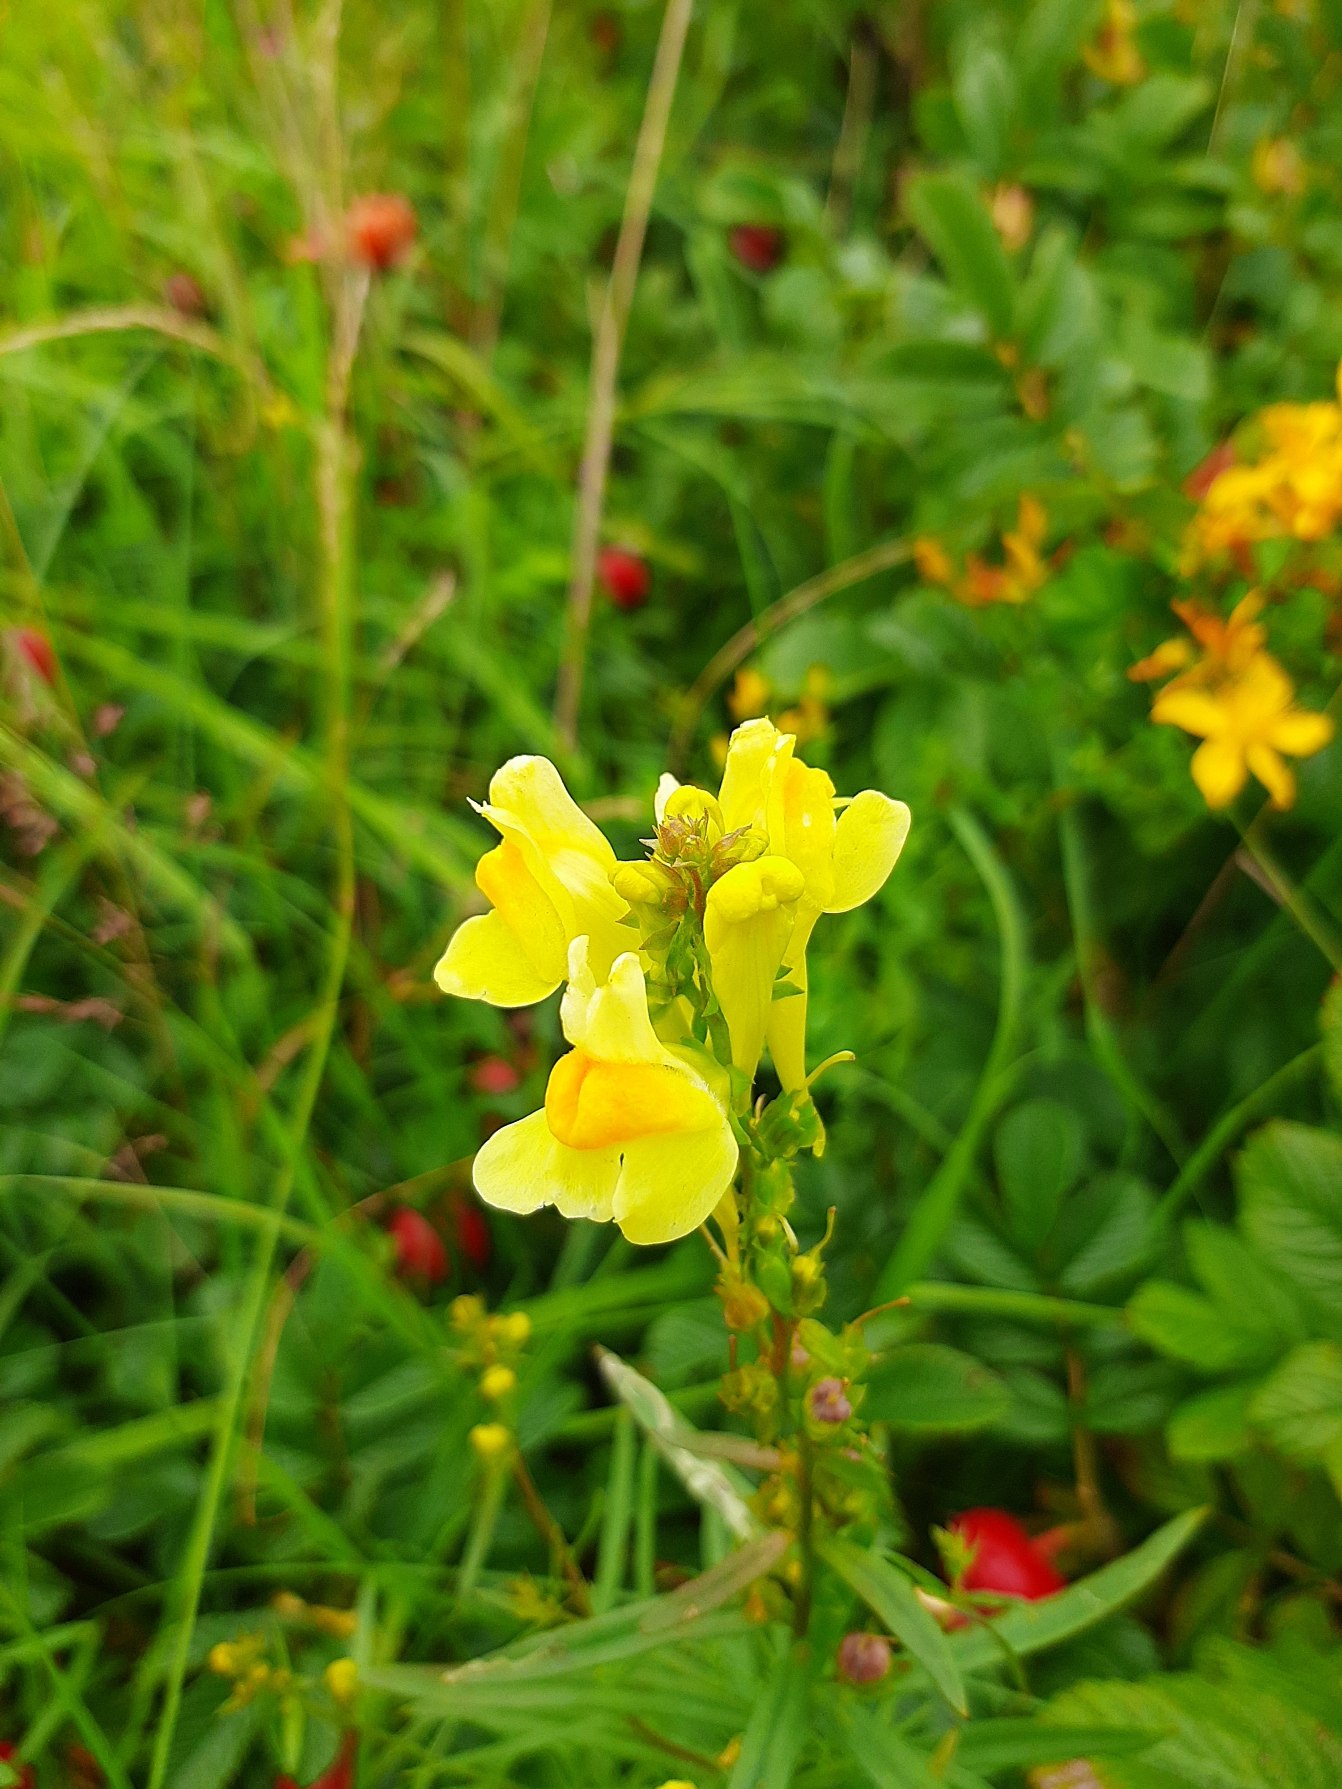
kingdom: Plantae
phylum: Tracheophyta
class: Magnoliopsida
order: Lamiales
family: Plantaginaceae
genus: Linaria
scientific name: Linaria vulgaris
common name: Almindelig torskemund
